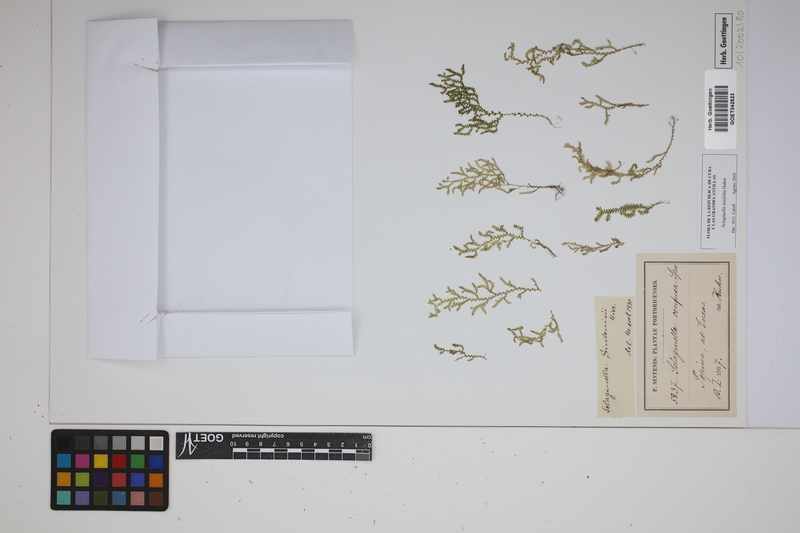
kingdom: Plantae
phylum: Tracheophyta
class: Lycopodiopsida
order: Selaginellales
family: Selaginellaceae
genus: Selaginella
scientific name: Selaginella laxifolia
